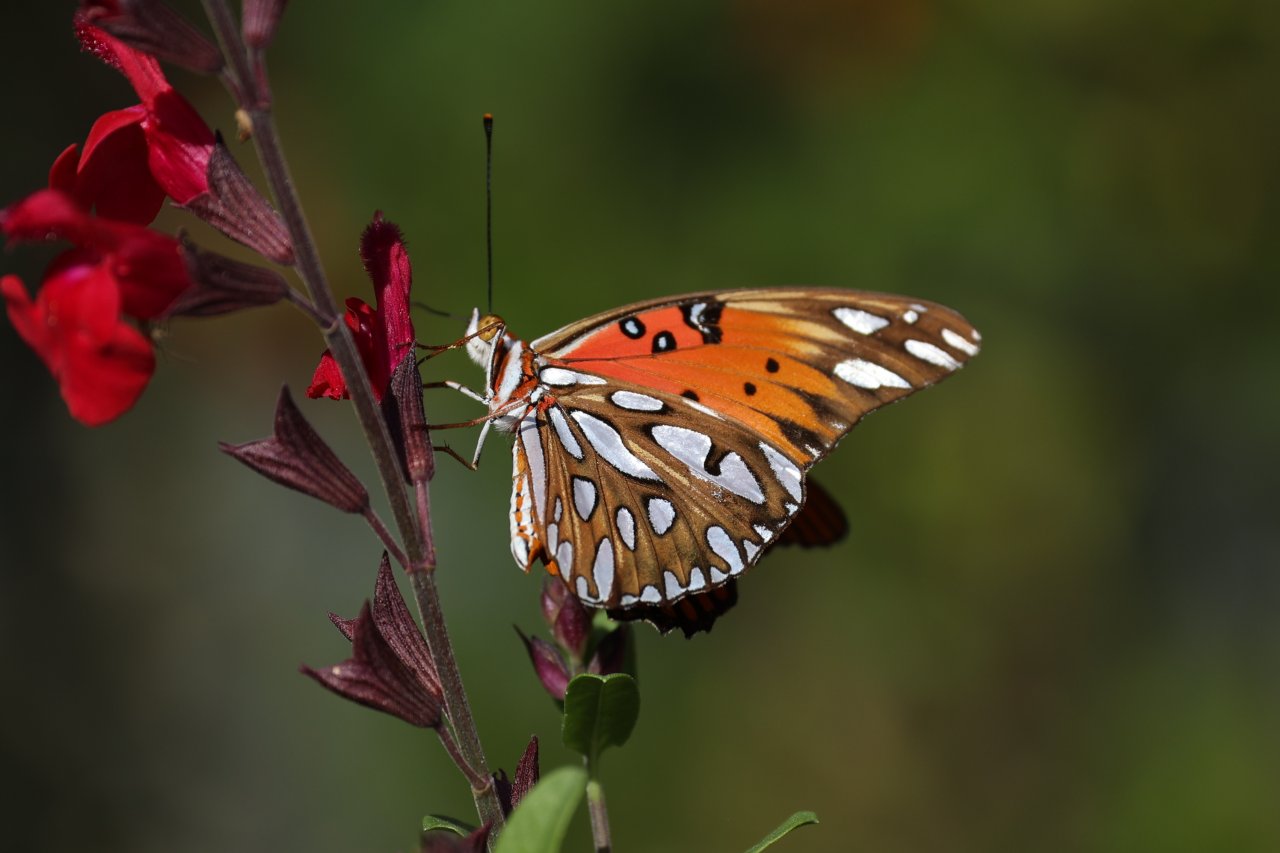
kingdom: Animalia
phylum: Arthropoda
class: Insecta
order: Lepidoptera
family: Nymphalidae
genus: Dione
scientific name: Dione vanillae
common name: Gulf Fritillary
